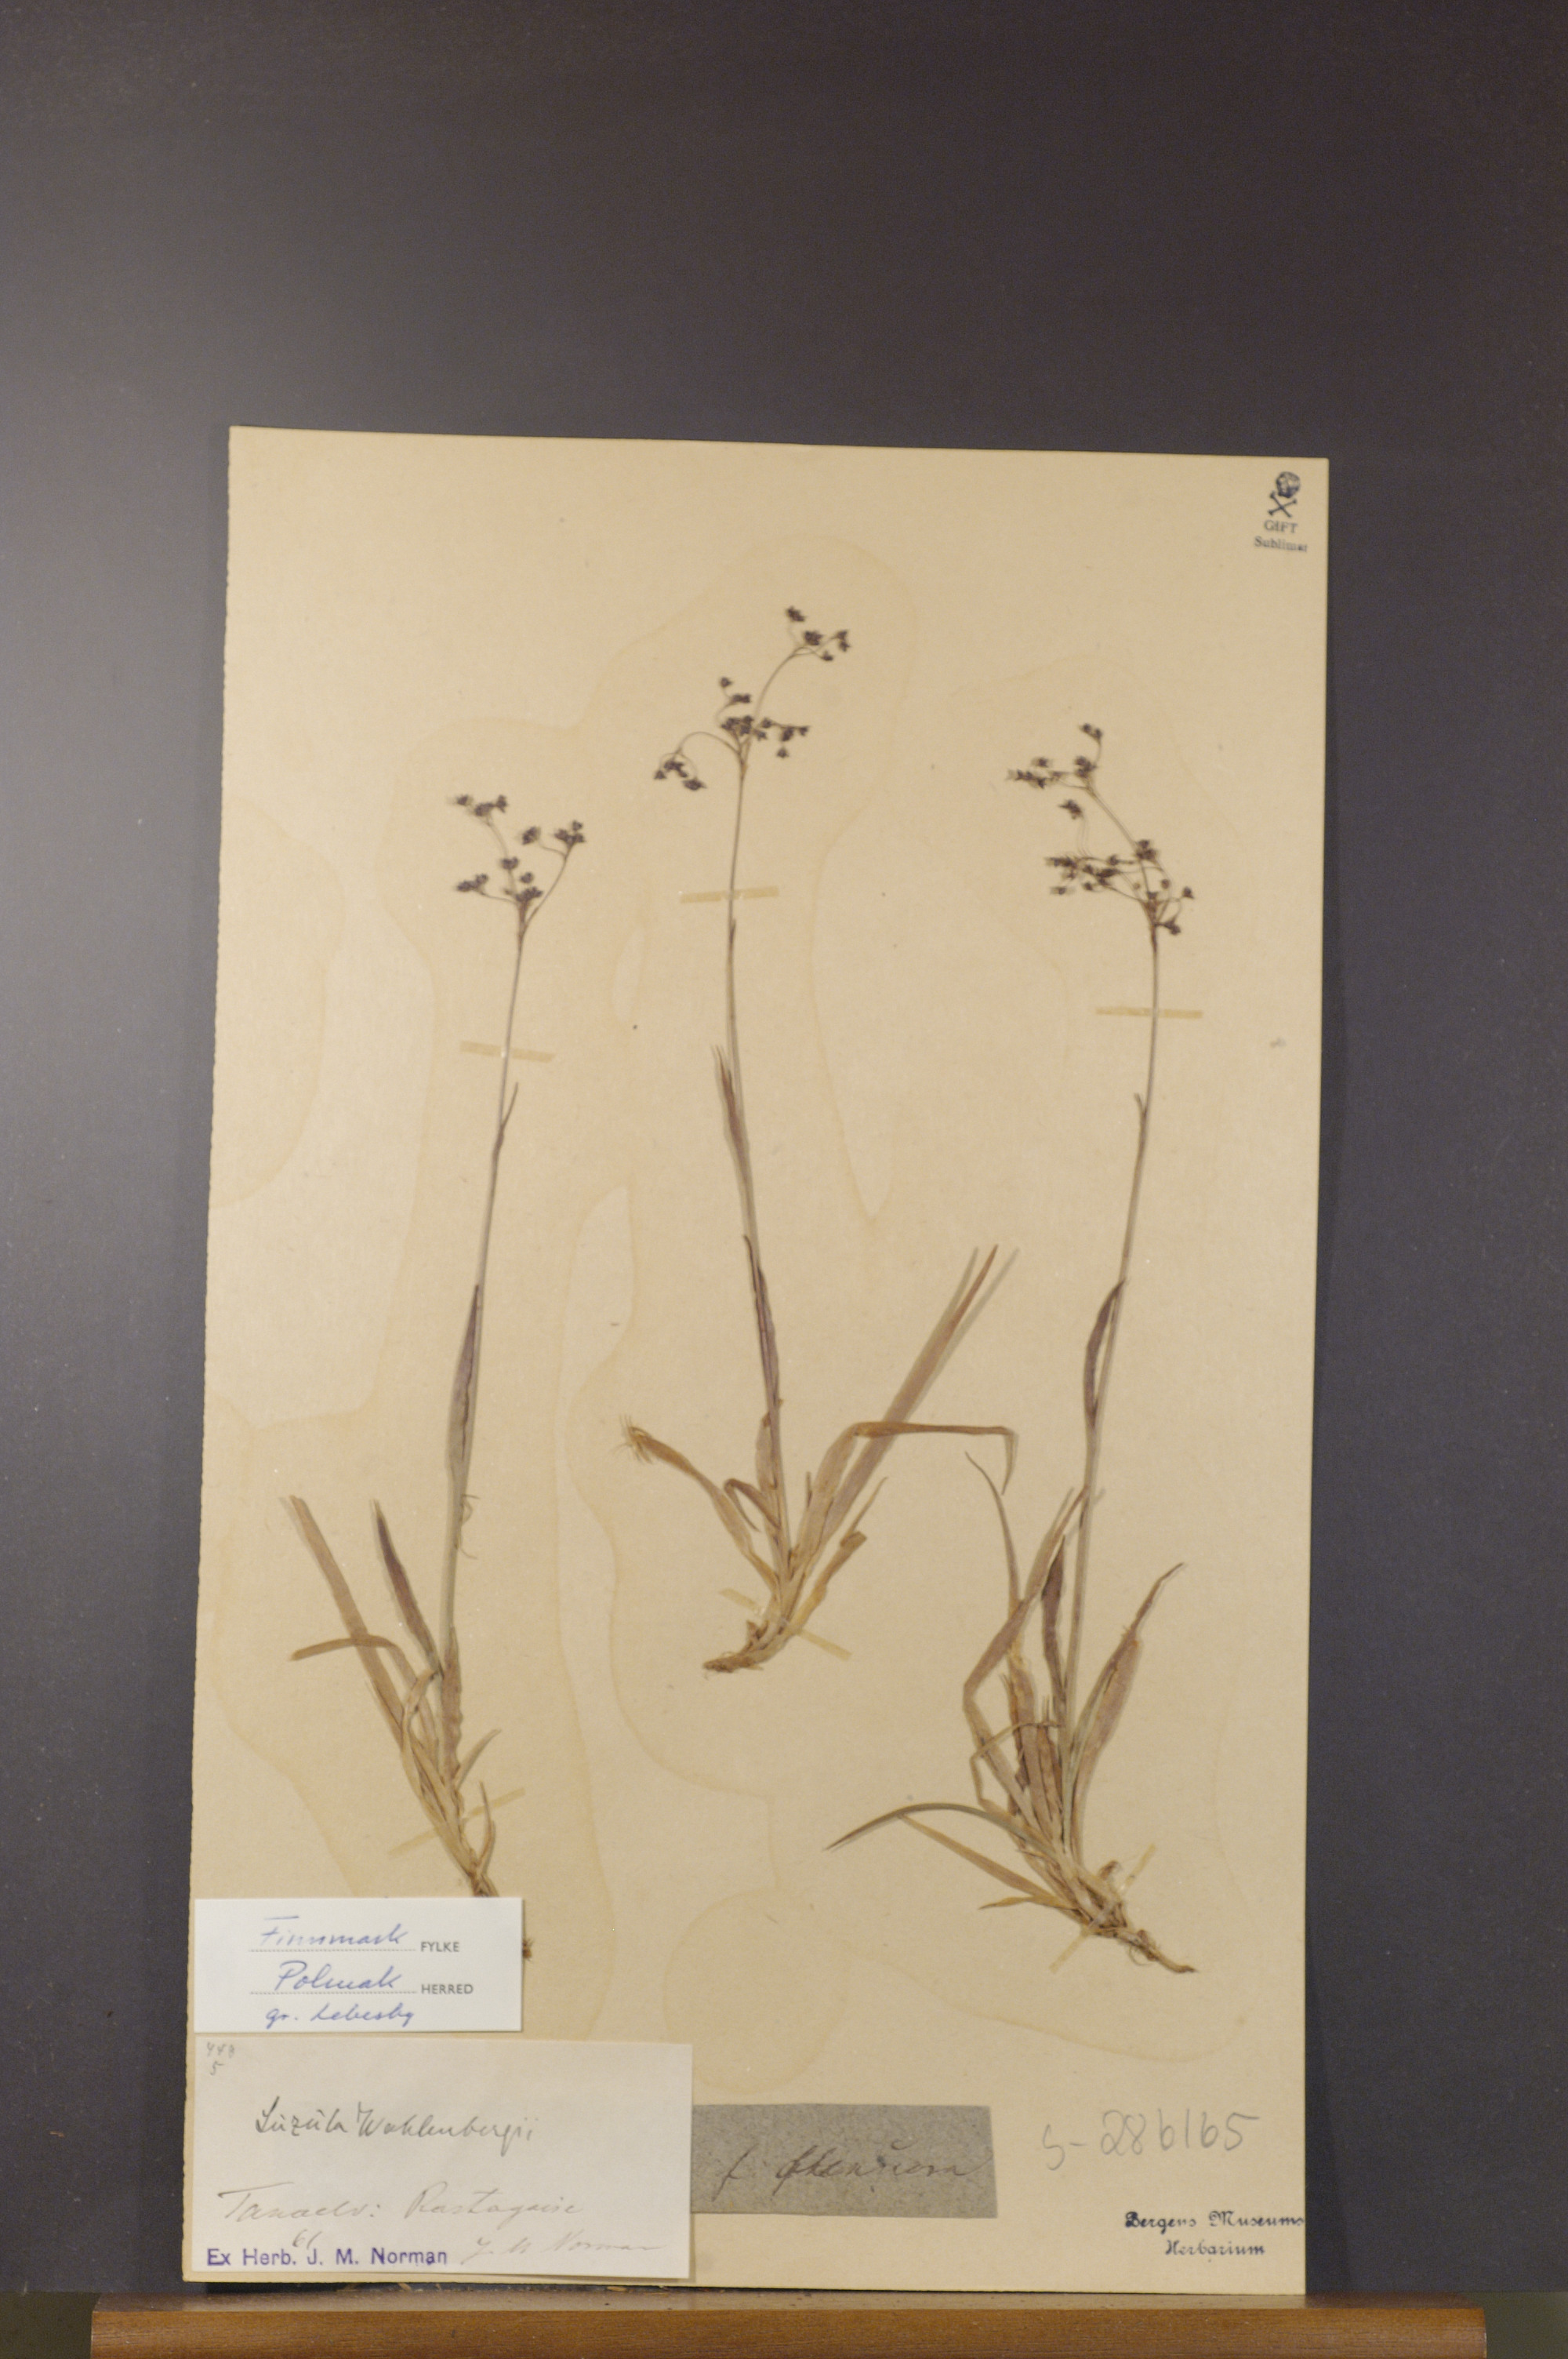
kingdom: Plantae
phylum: Tracheophyta
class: Liliopsida
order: Poales
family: Juncaceae
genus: Luzula
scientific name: Luzula wahlenbergii
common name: Wahlenberg's wood-rush
